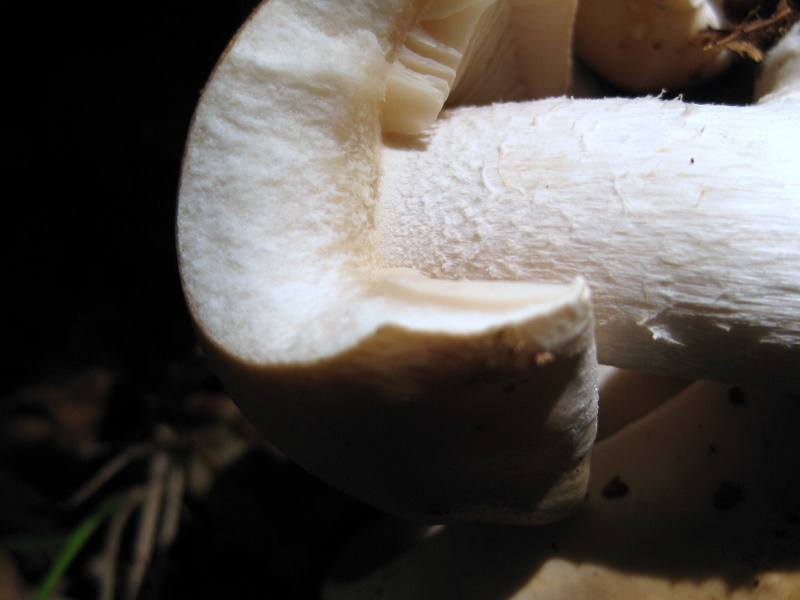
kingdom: Fungi
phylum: Basidiomycota
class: Agaricomycetes
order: Agaricales
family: Hymenogastraceae
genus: Hebeloma
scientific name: Hebeloma sinapizans
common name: ræddike-tåreblad
